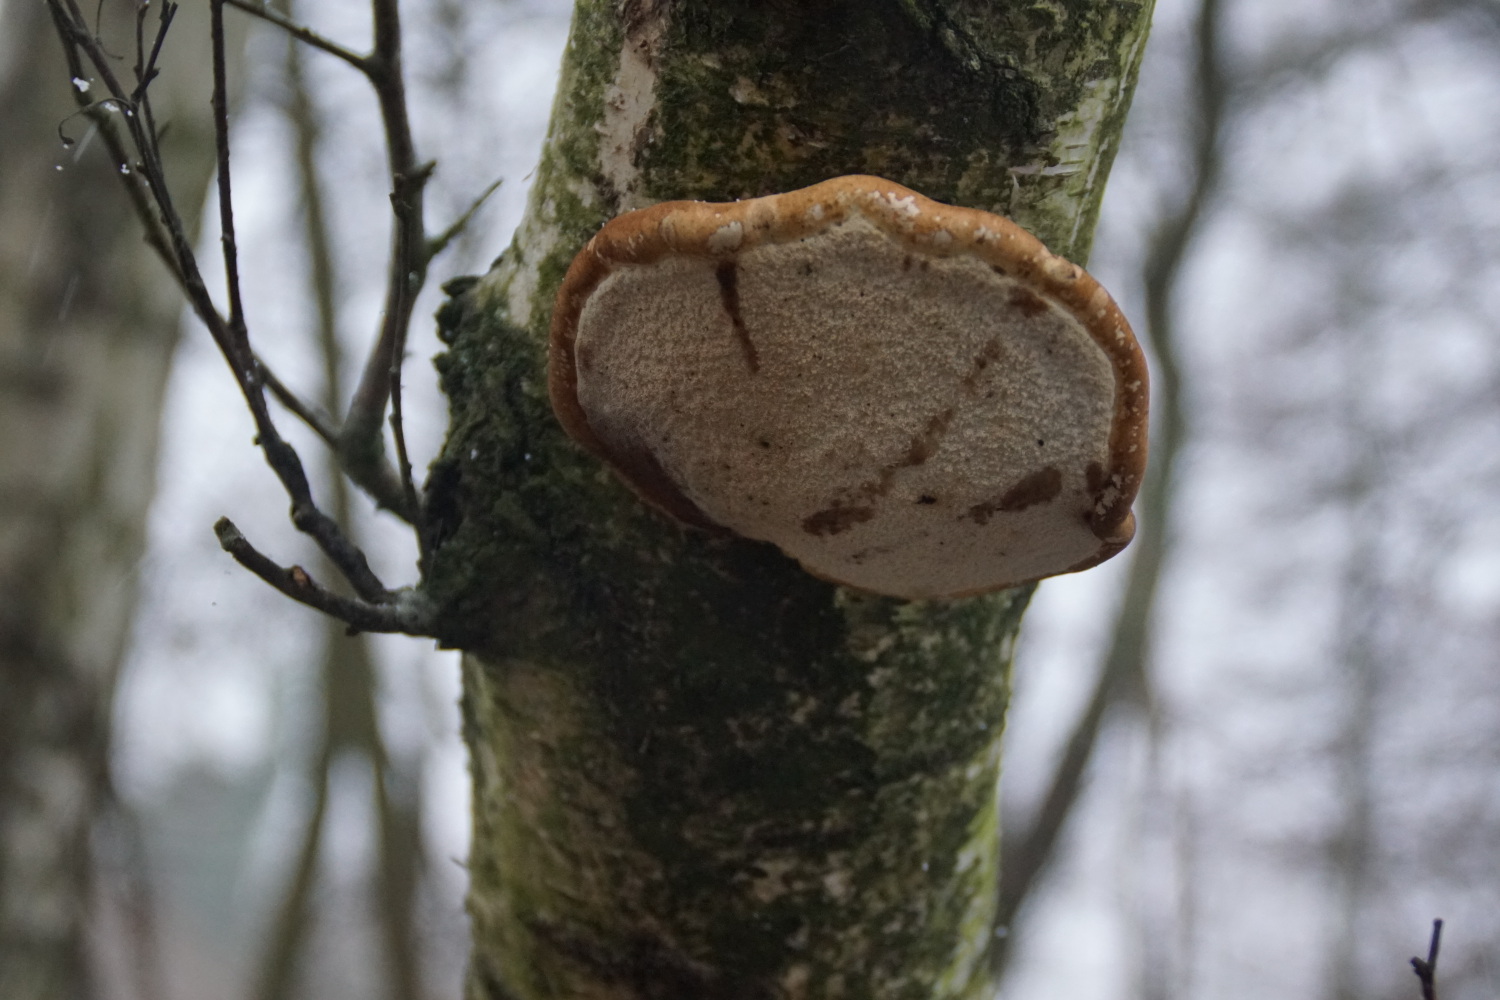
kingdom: Fungi
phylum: Basidiomycota
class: Agaricomycetes
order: Polyporales
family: Fomitopsidaceae
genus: Fomitopsis
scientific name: Fomitopsis betulina
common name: birkeporesvamp
